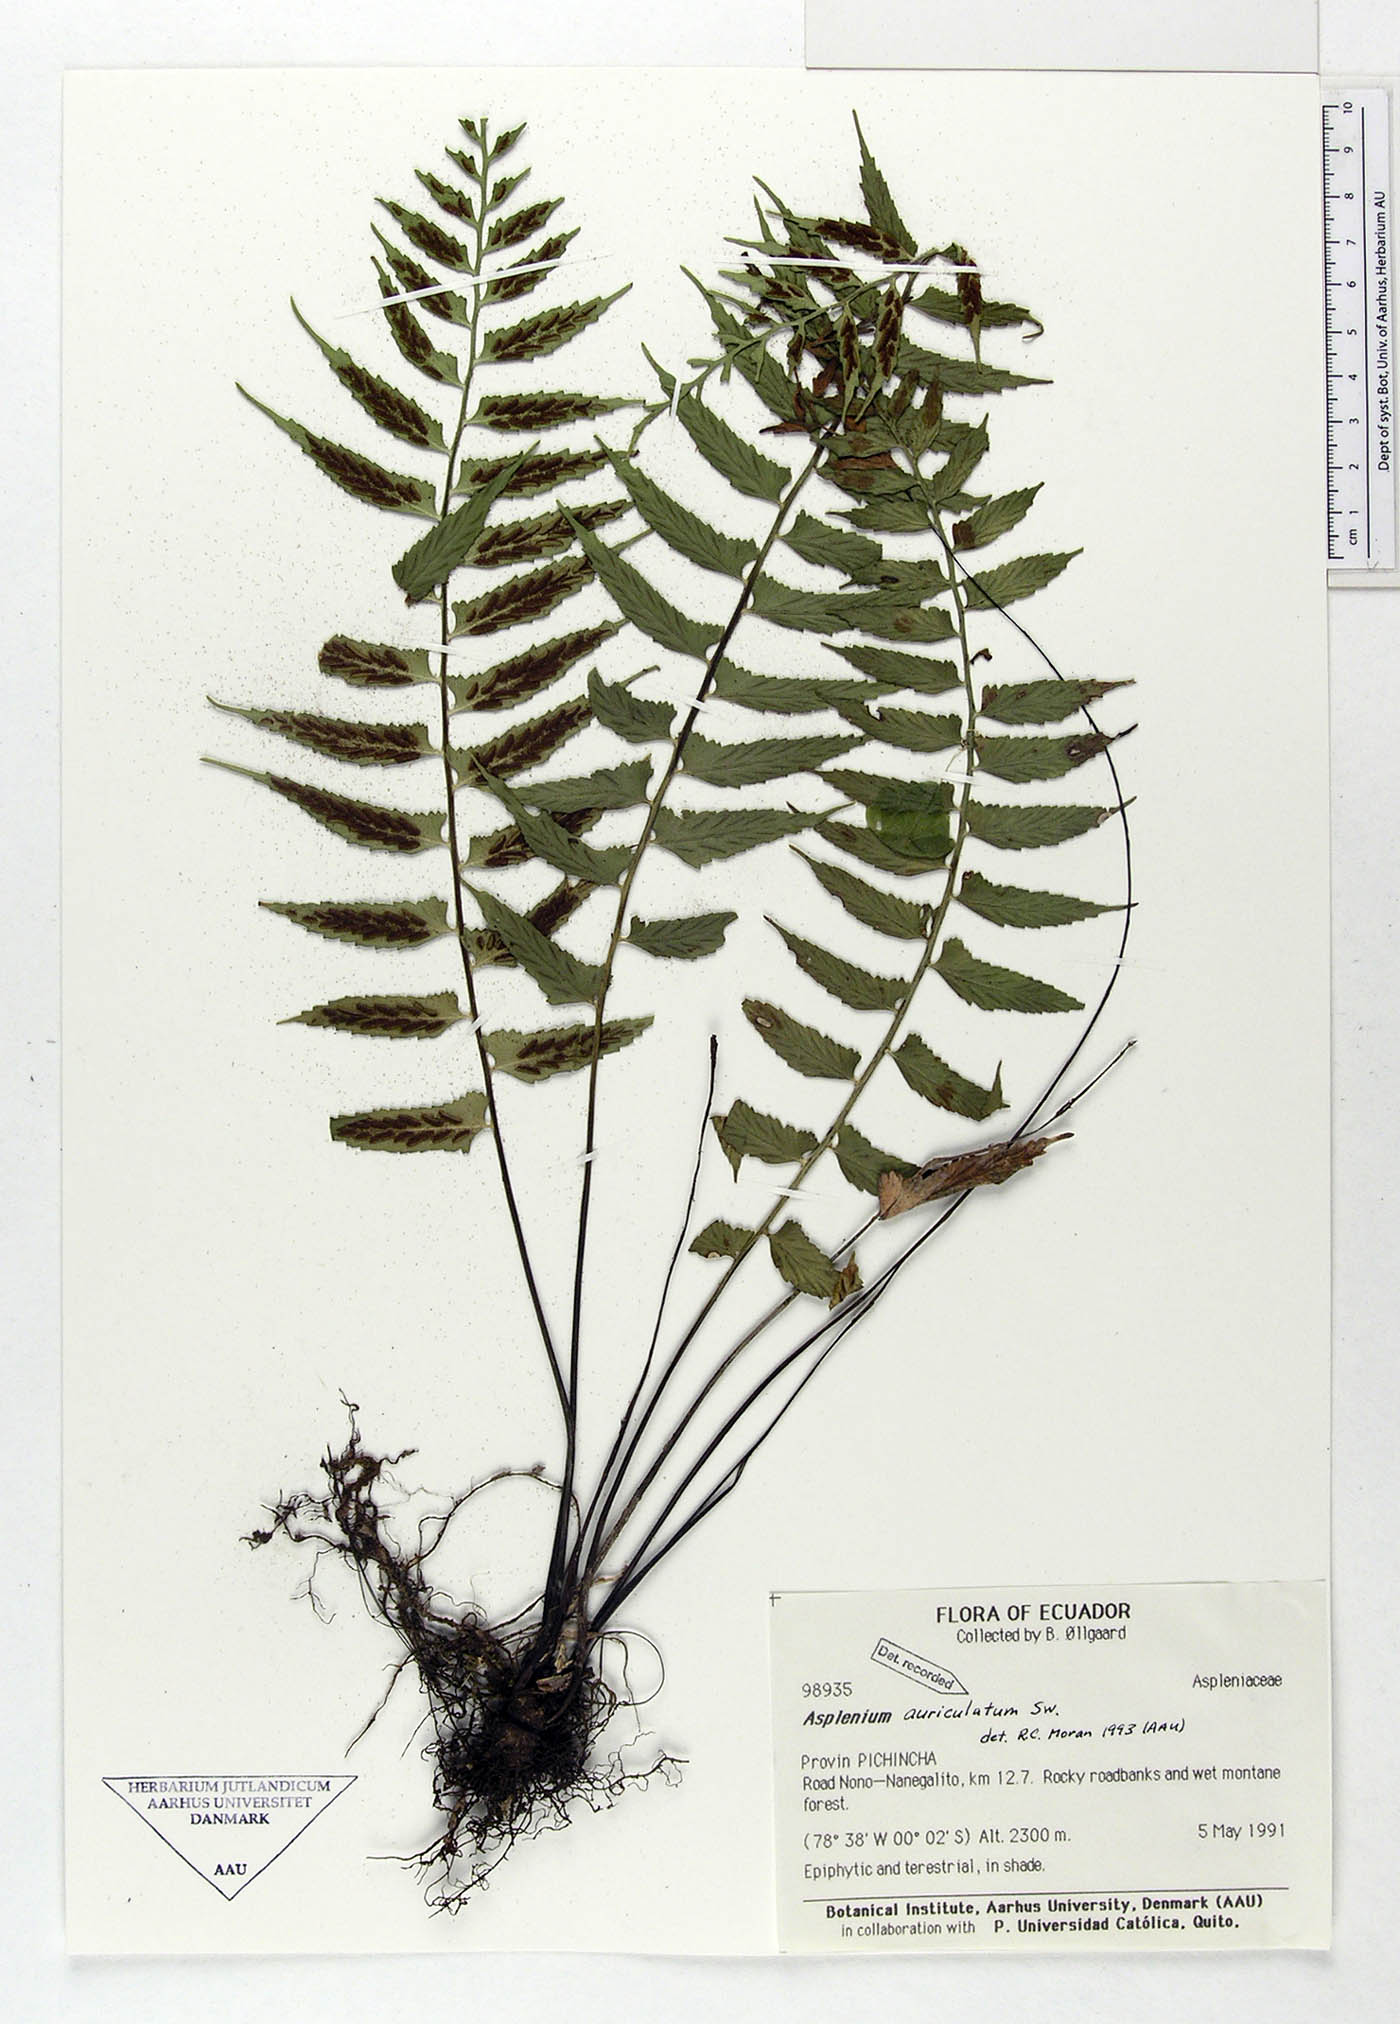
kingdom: Plantae
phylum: Tracheophyta
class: Polypodiopsida
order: Polypodiales
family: Aspleniaceae
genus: Asplenium
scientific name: Asplenium auriculatum
